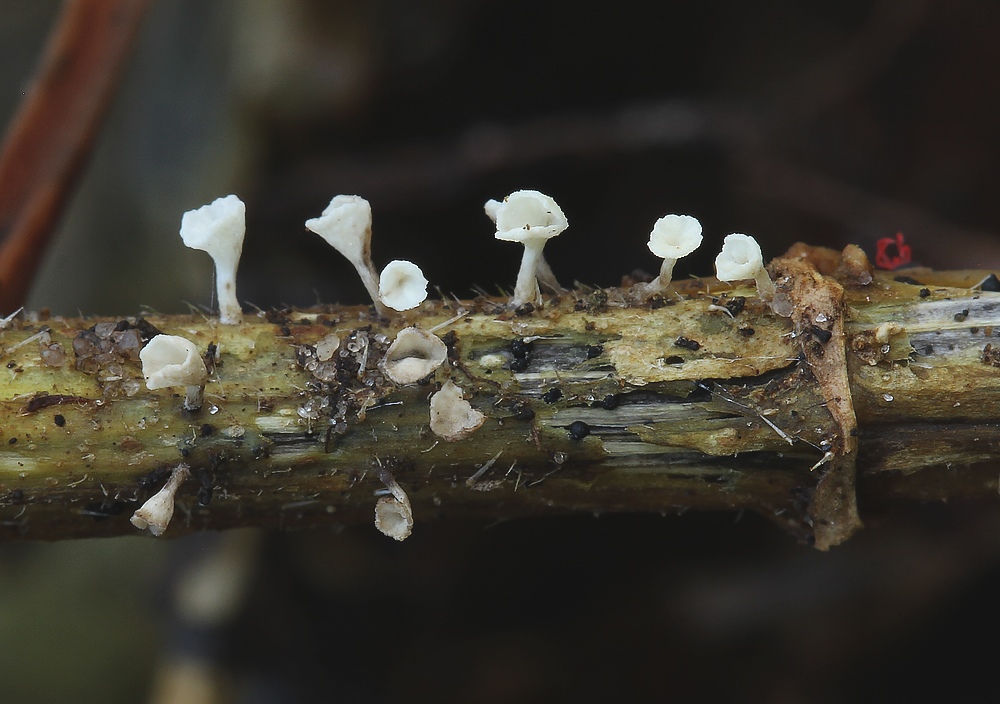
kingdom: Fungi
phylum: Basidiomycota
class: Agaricomycetes
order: Agaricales
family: Marasmiaceae
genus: Calyptella
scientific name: Calyptella
